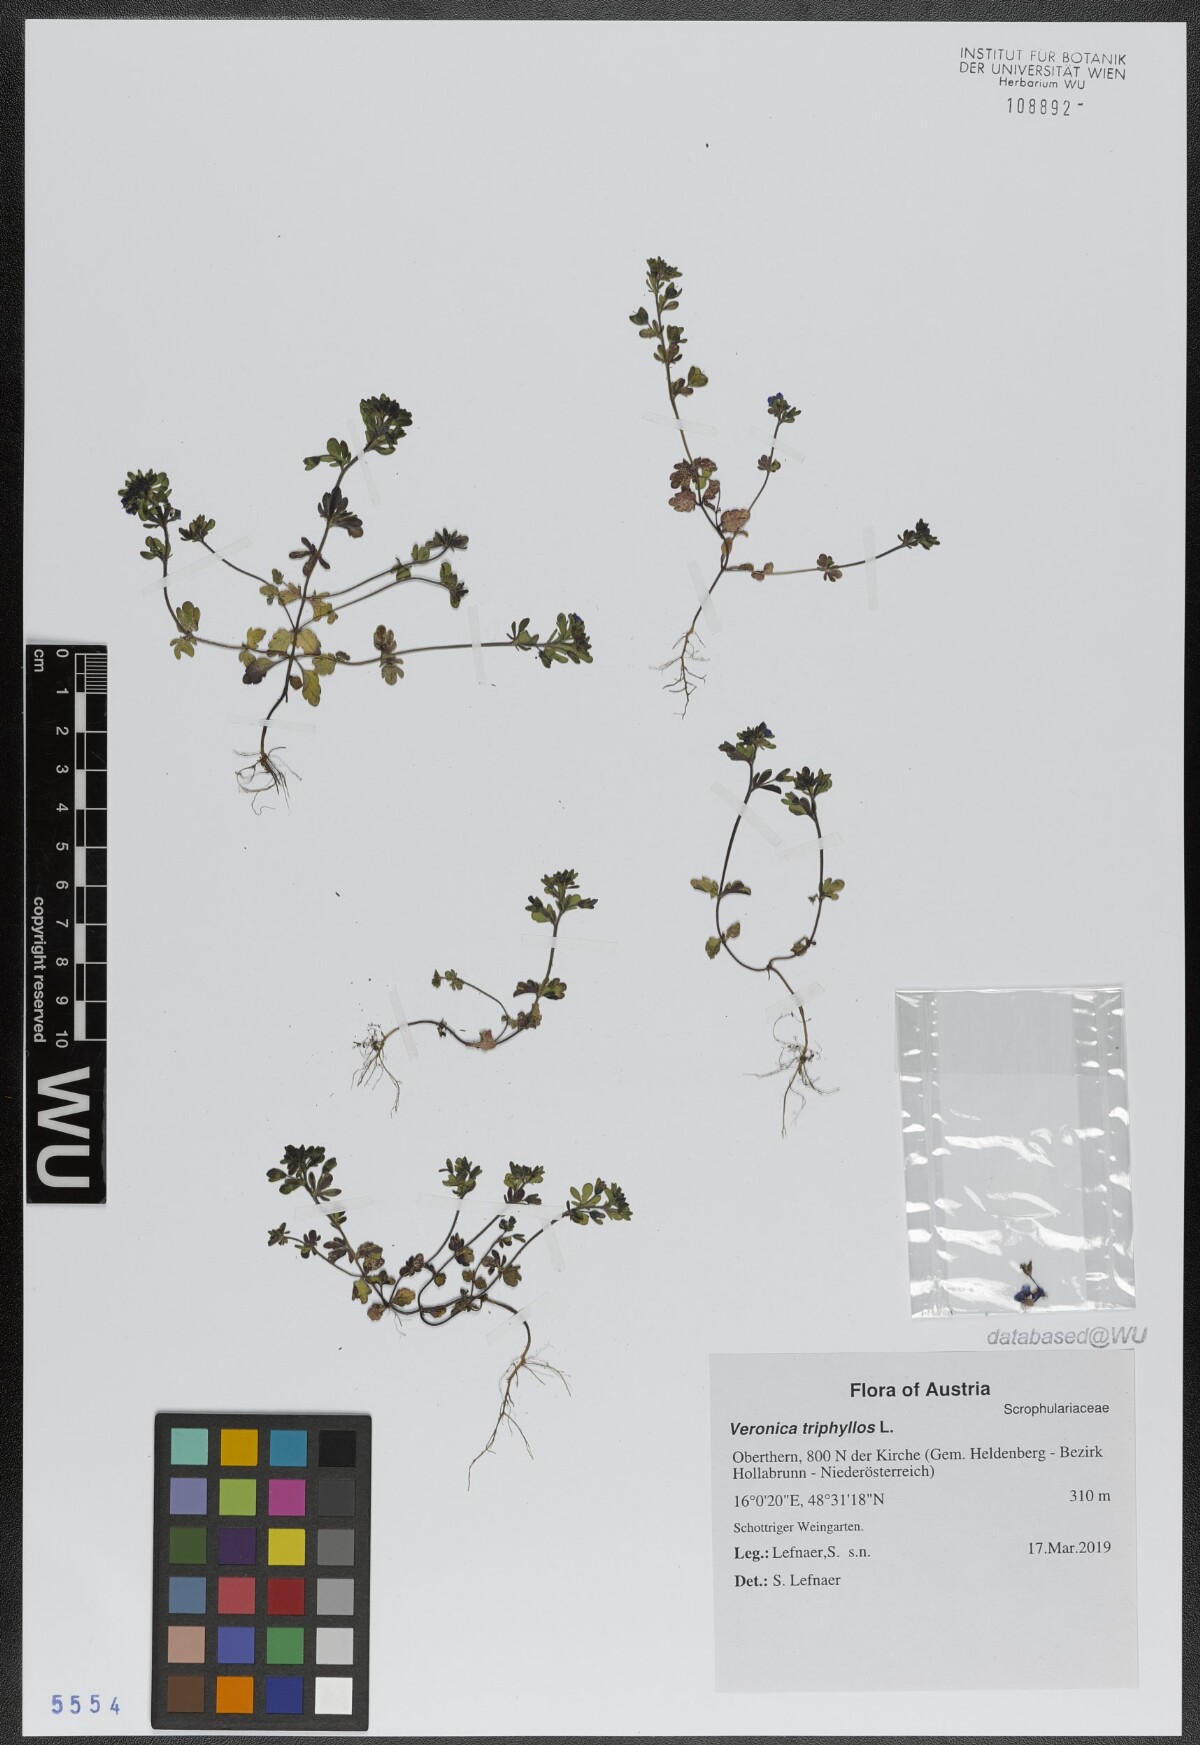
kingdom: Plantae
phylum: Tracheophyta
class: Magnoliopsida
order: Lamiales
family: Plantaginaceae
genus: Veronica
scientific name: Veronica triphyllos
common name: Fingered speedwell
